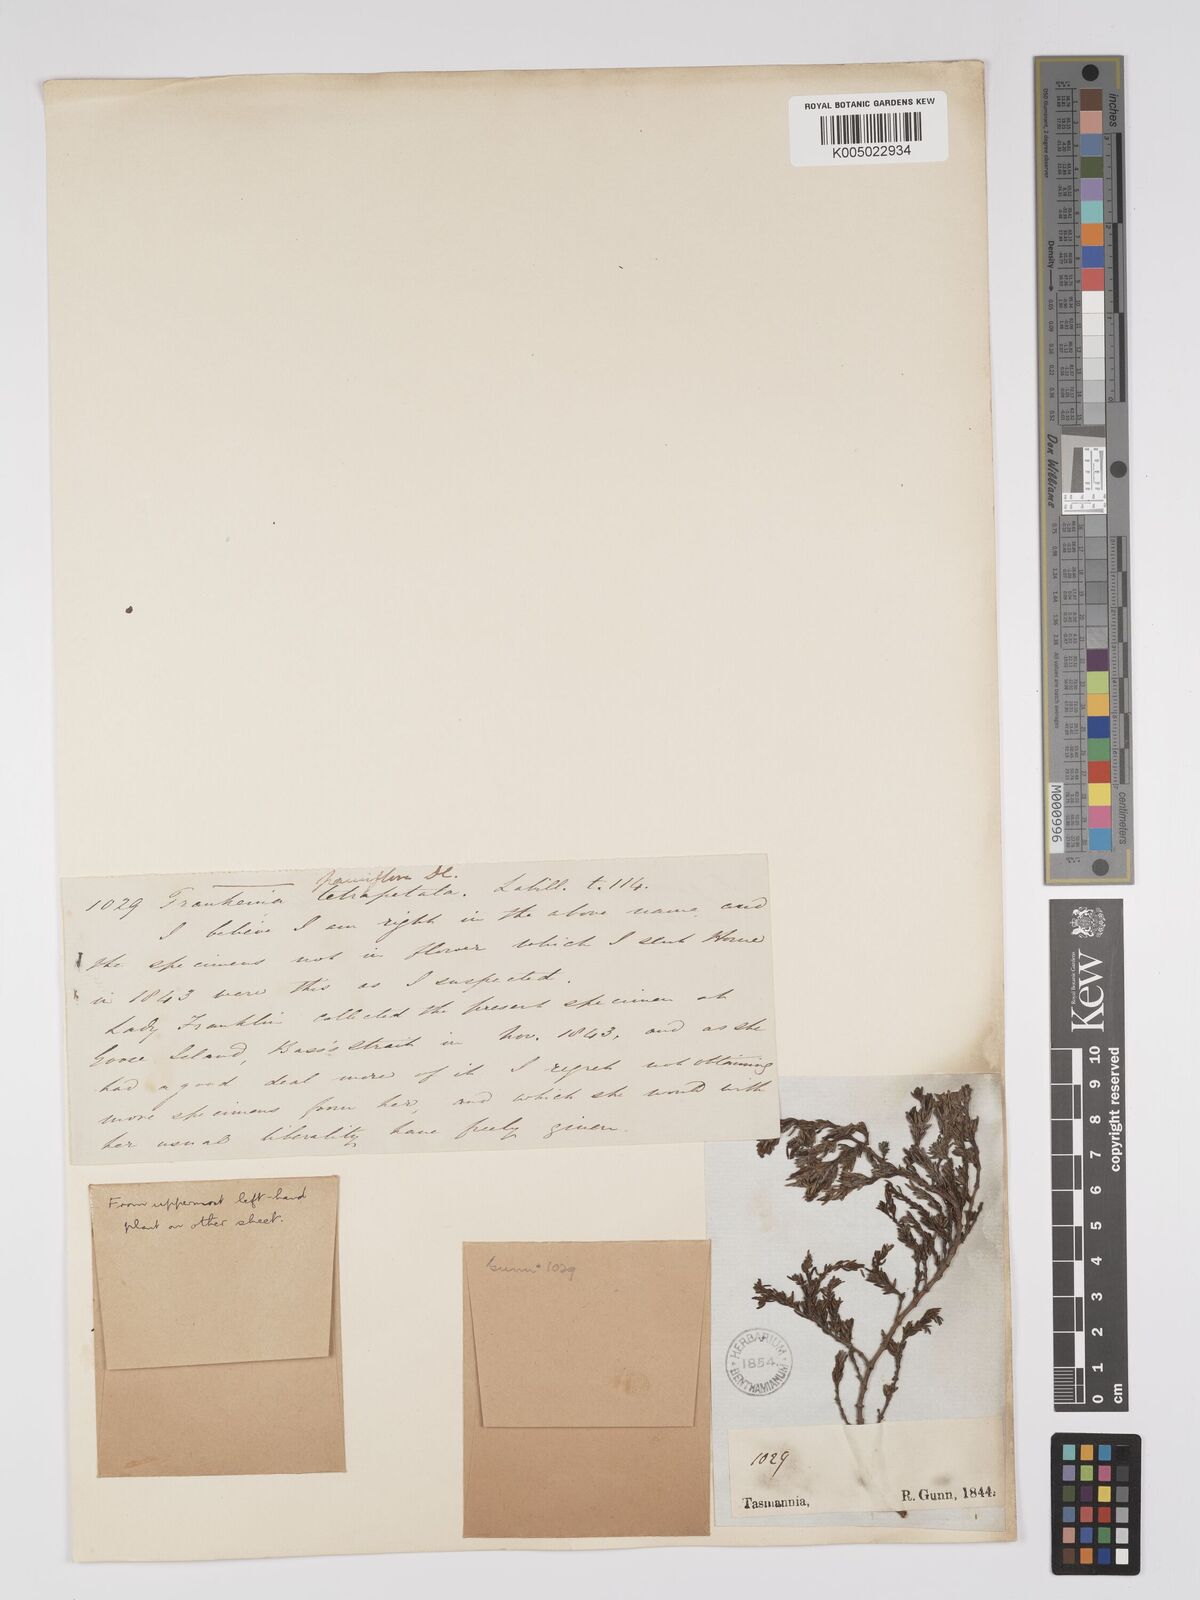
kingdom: Plantae
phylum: Tracheophyta
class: Magnoliopsida
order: Caryophyllales
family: Frankeniaceae
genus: Frankenia
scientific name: Frankenia pauciflora
